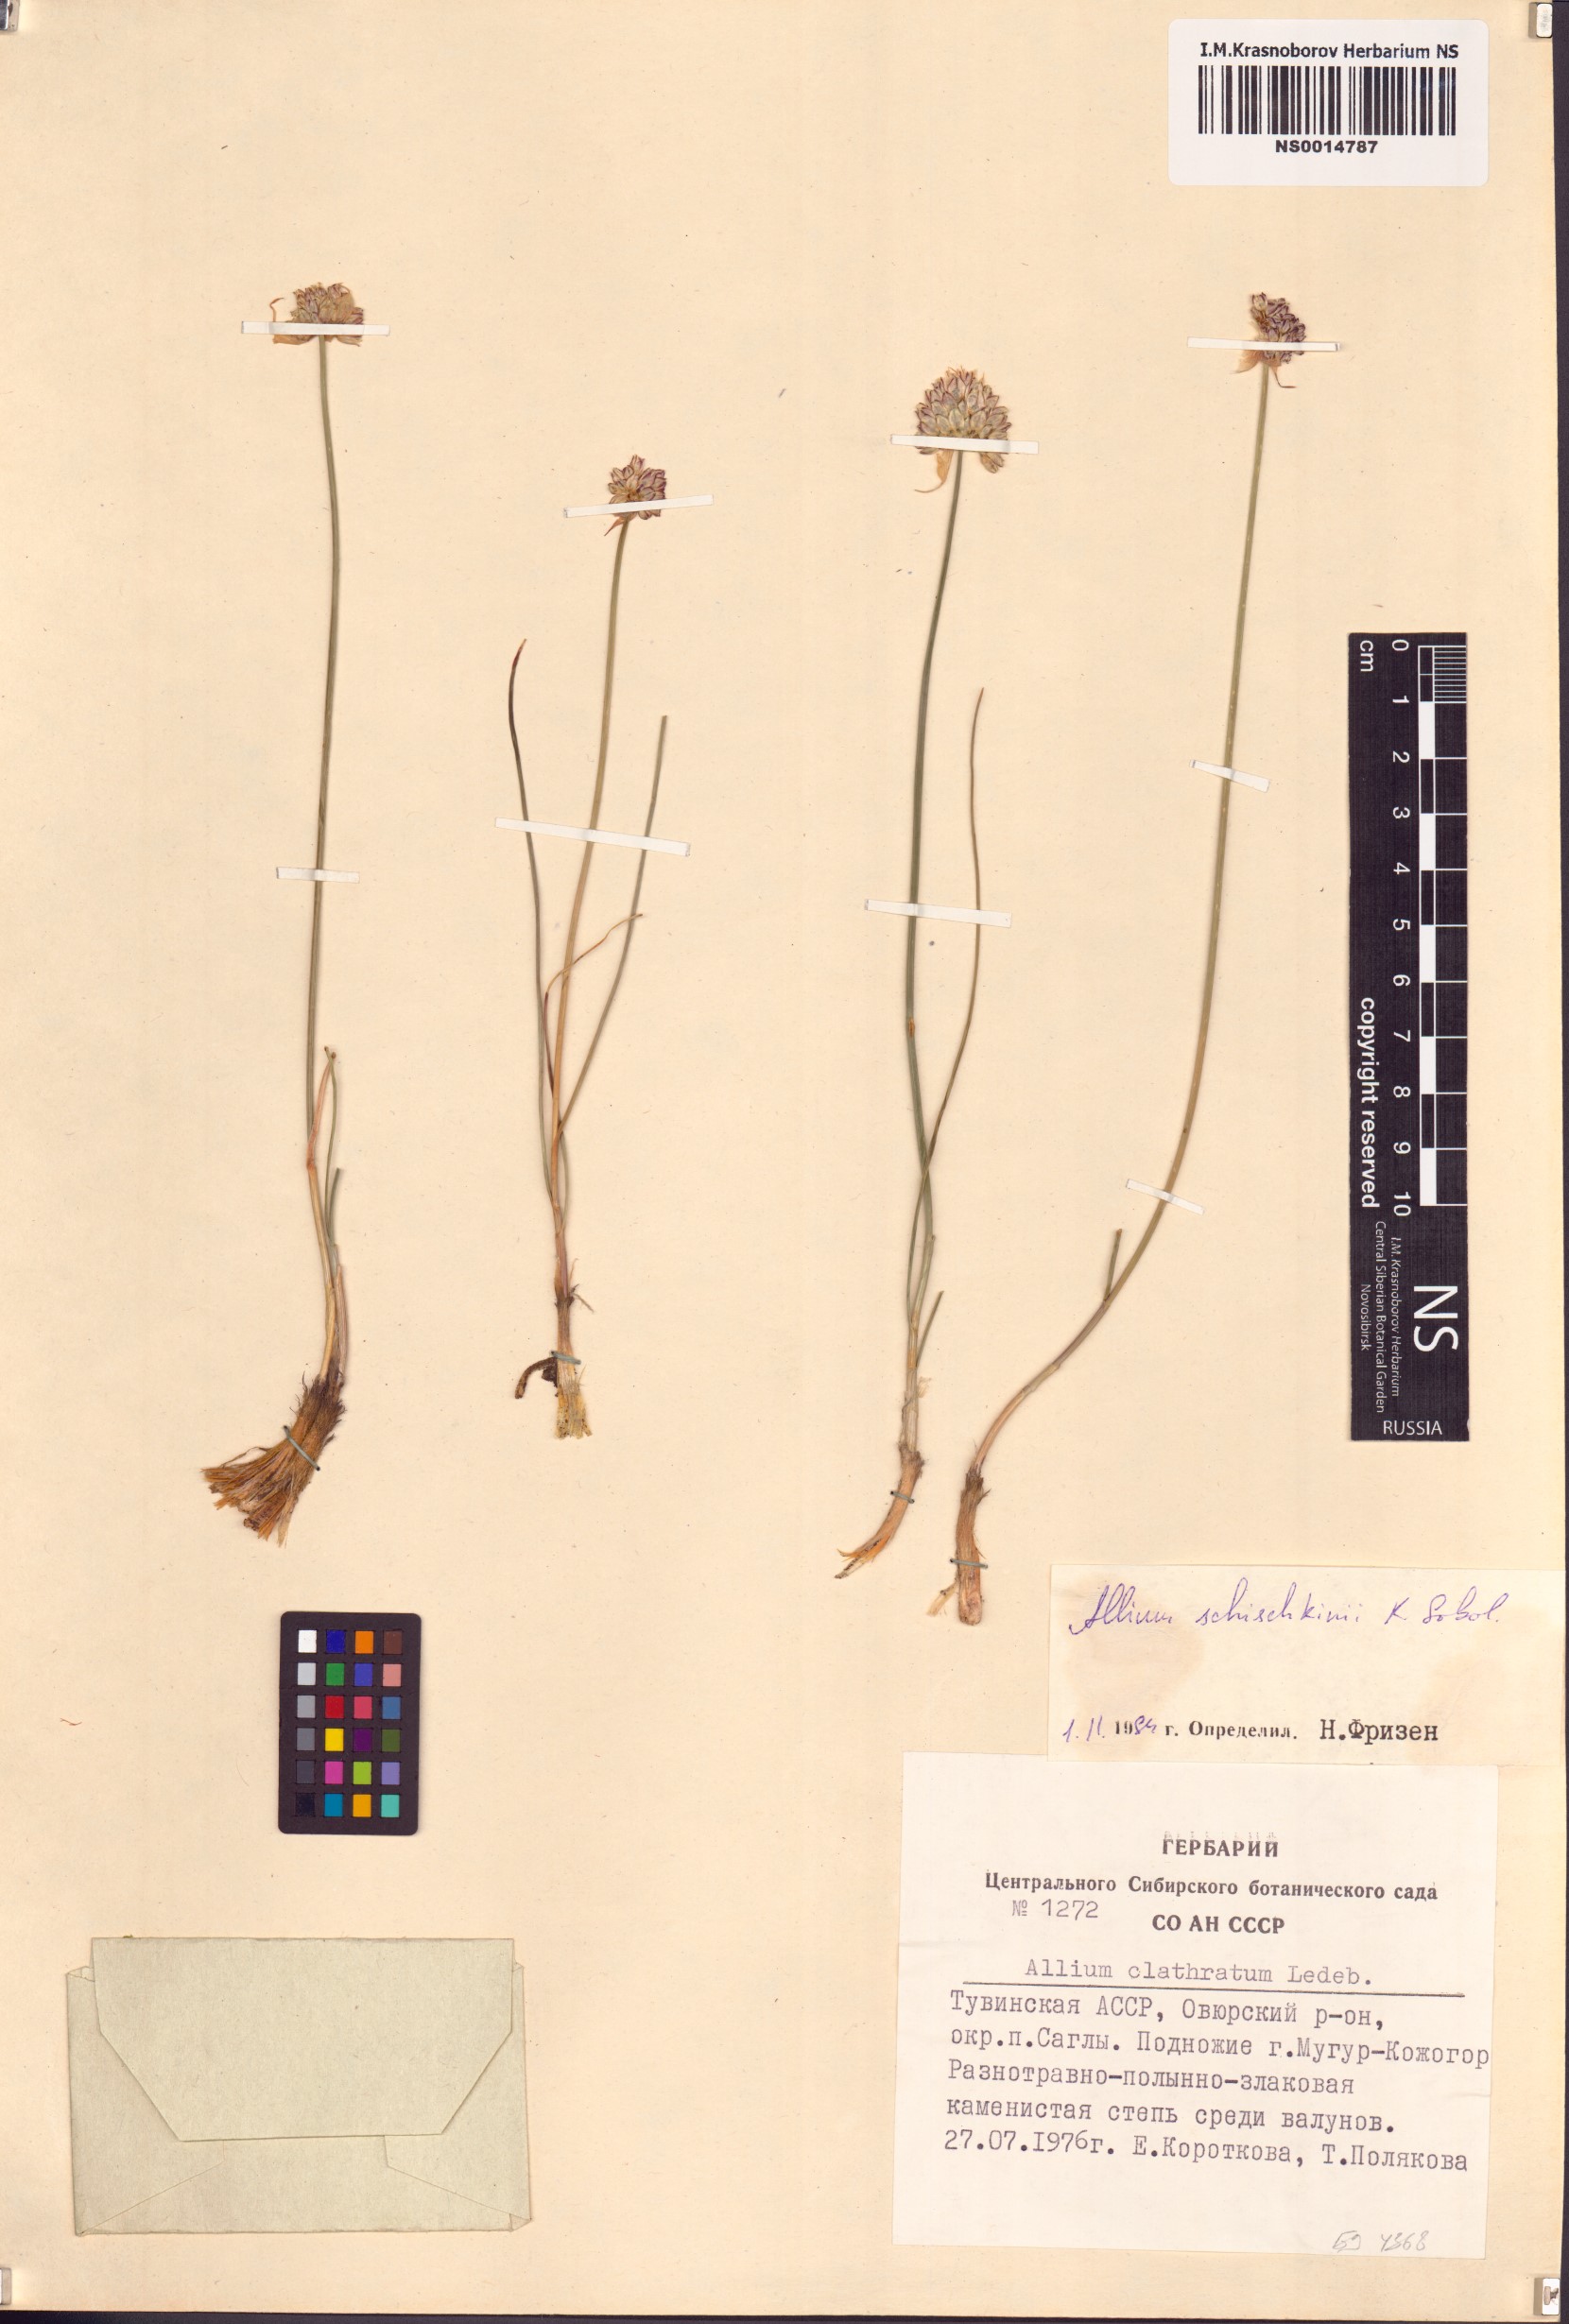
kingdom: Plantae
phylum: Tracheophyta
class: Liliopsida
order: Asparagales
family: Amaryllidaceae
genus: Allium
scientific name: Allium schischkinii
